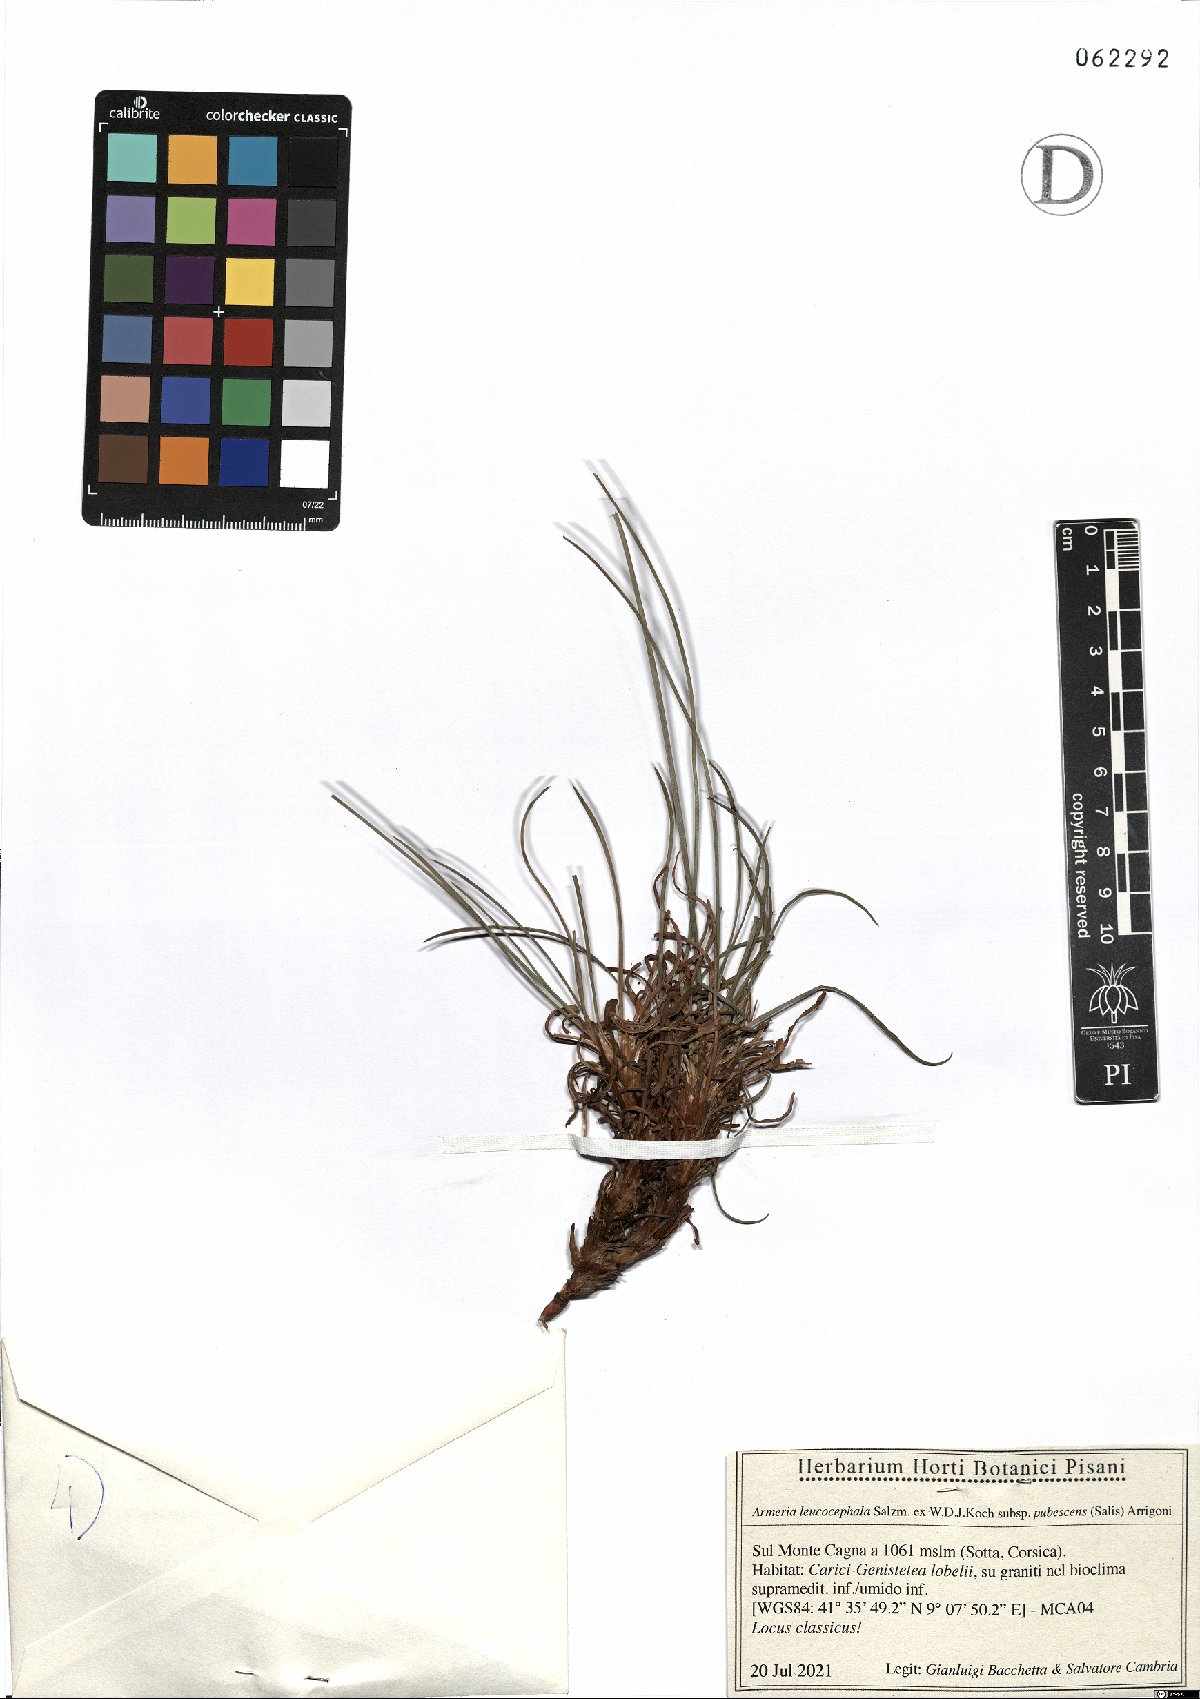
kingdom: Plantae
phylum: Tracheophyta
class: Magnoliopsida
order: Caryophyllales
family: Plumbaginaceae
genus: Armeria
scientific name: Armeria leucocephala
